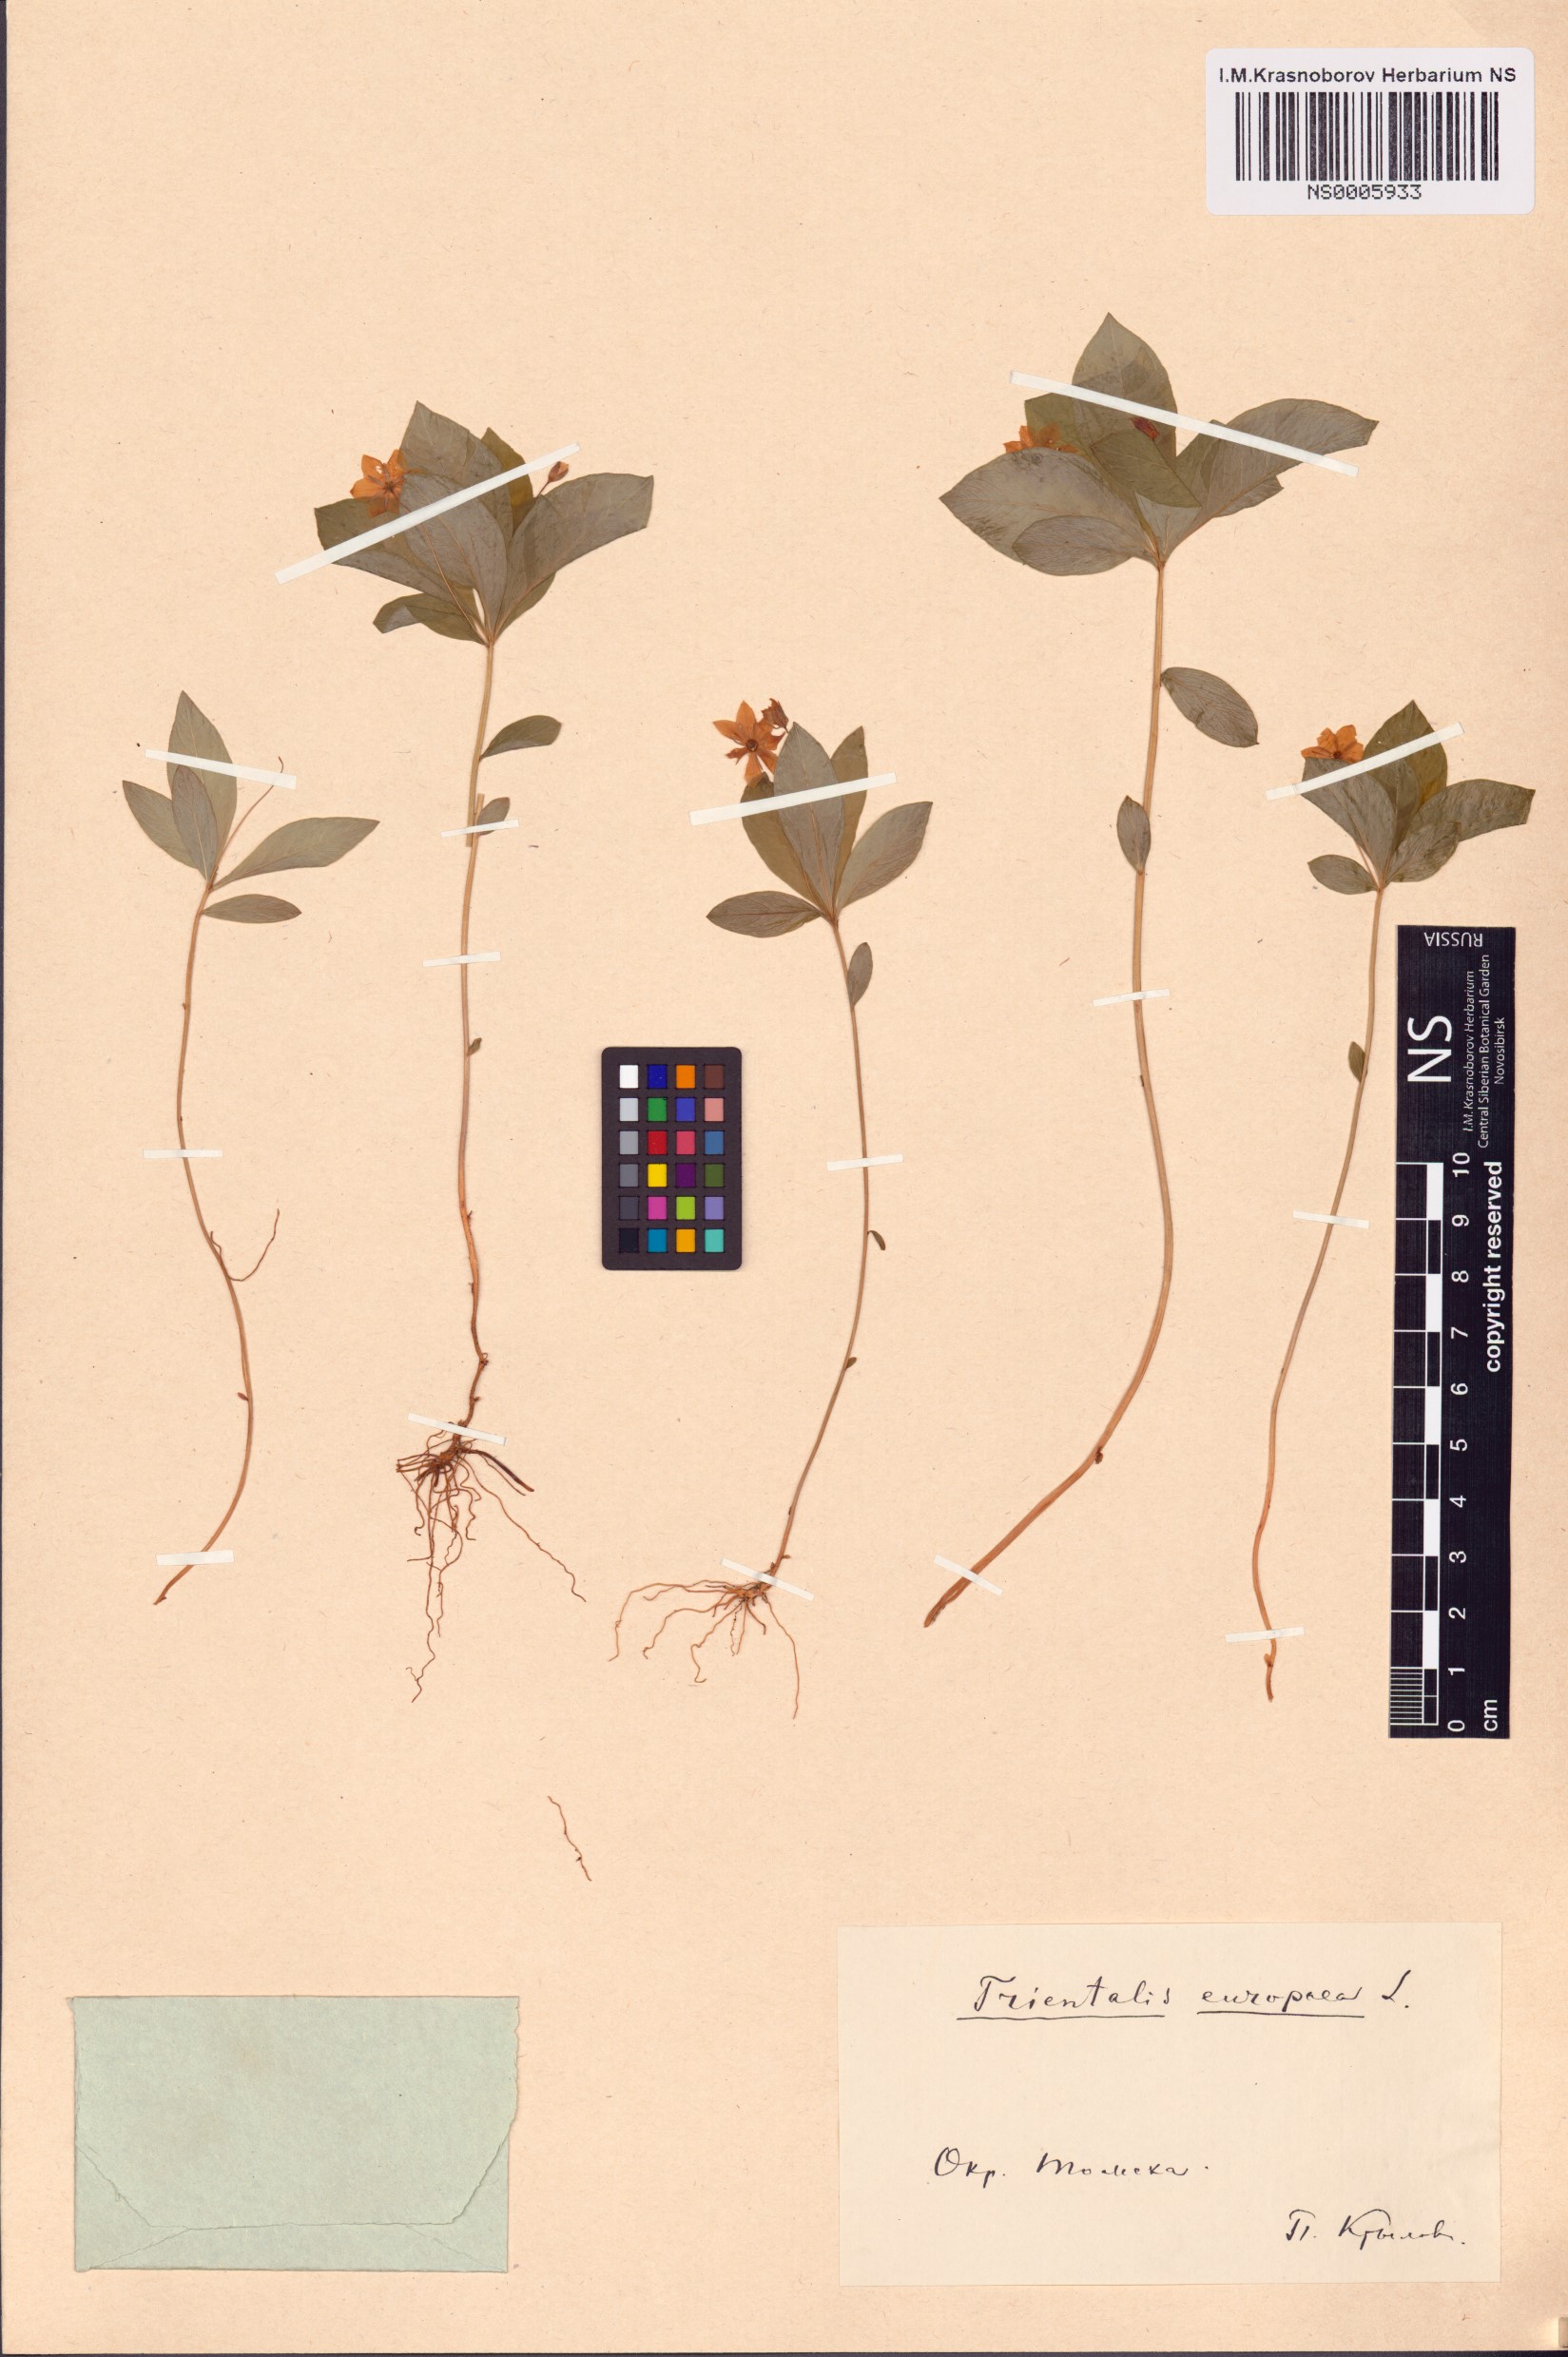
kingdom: Plantae
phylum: Tracheophyta
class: Magnoliopsida
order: Ericales
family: Primulaceae
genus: Lysimachia
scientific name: Lysimachia europaea
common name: Arctic starflower
